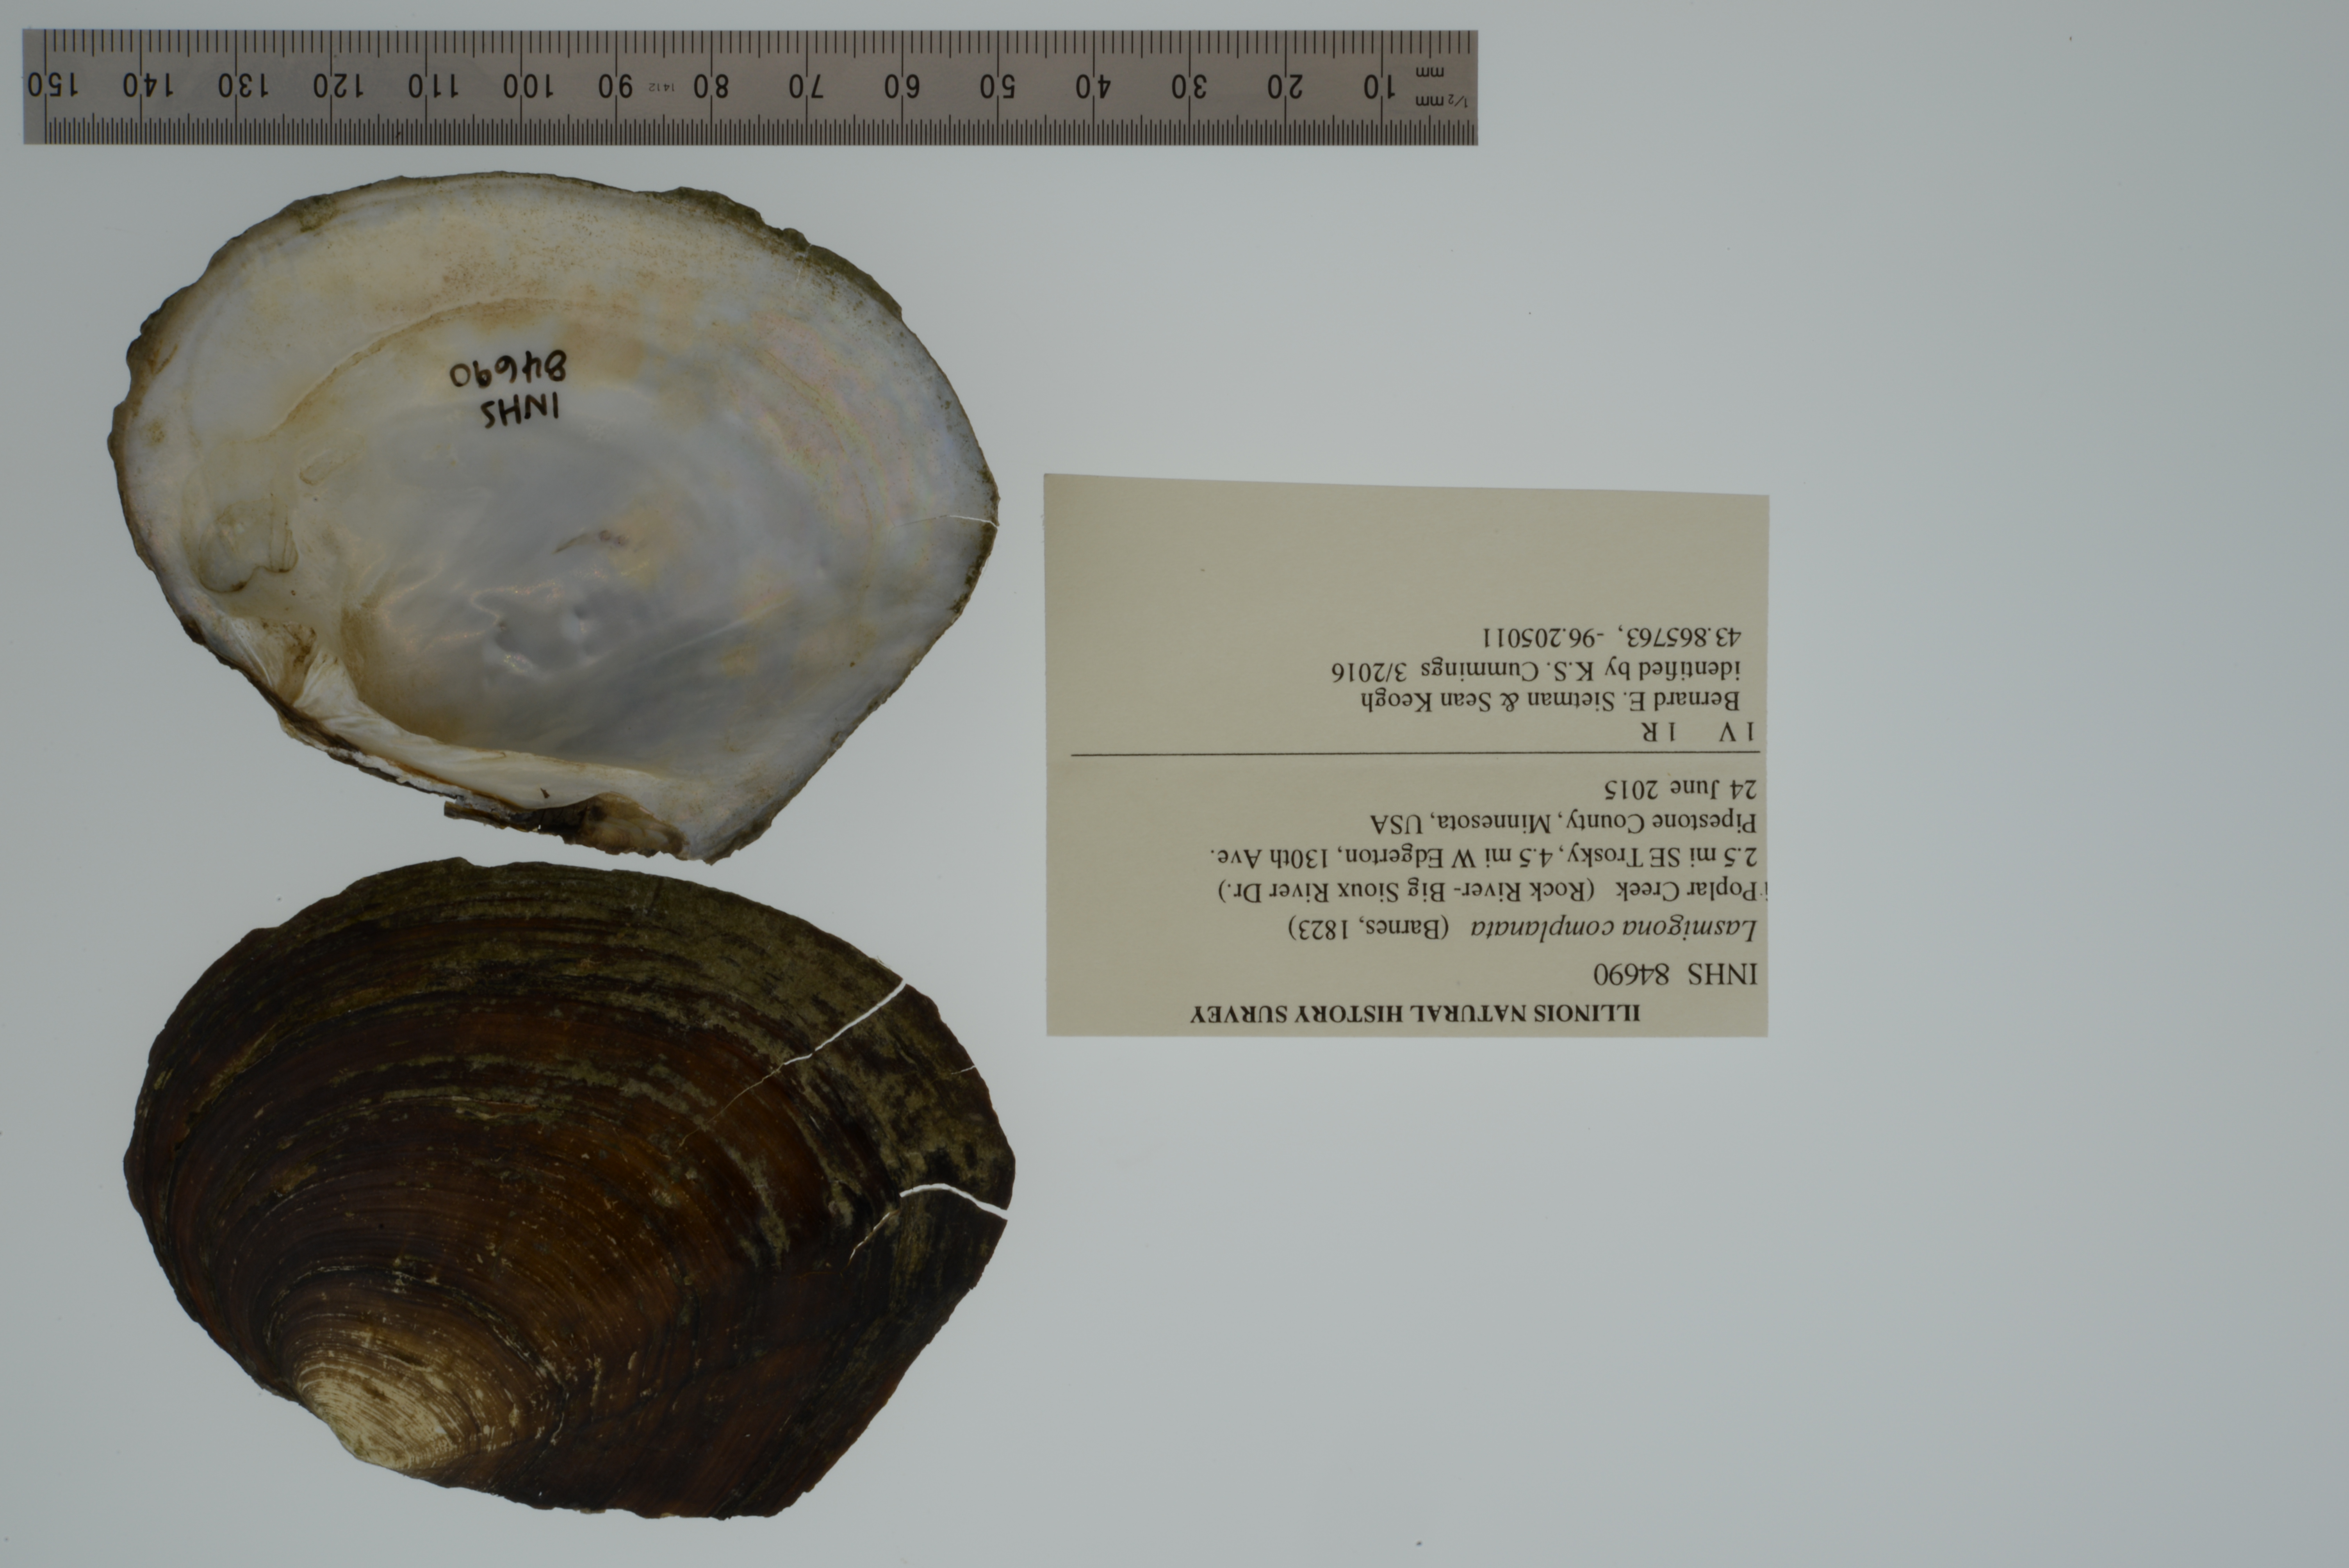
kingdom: Animalia
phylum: Mollusca
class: Bivalvia
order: Unionida
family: Unionidae
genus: Lasmigona
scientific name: Lasmigona complanata
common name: White heelsplitter
